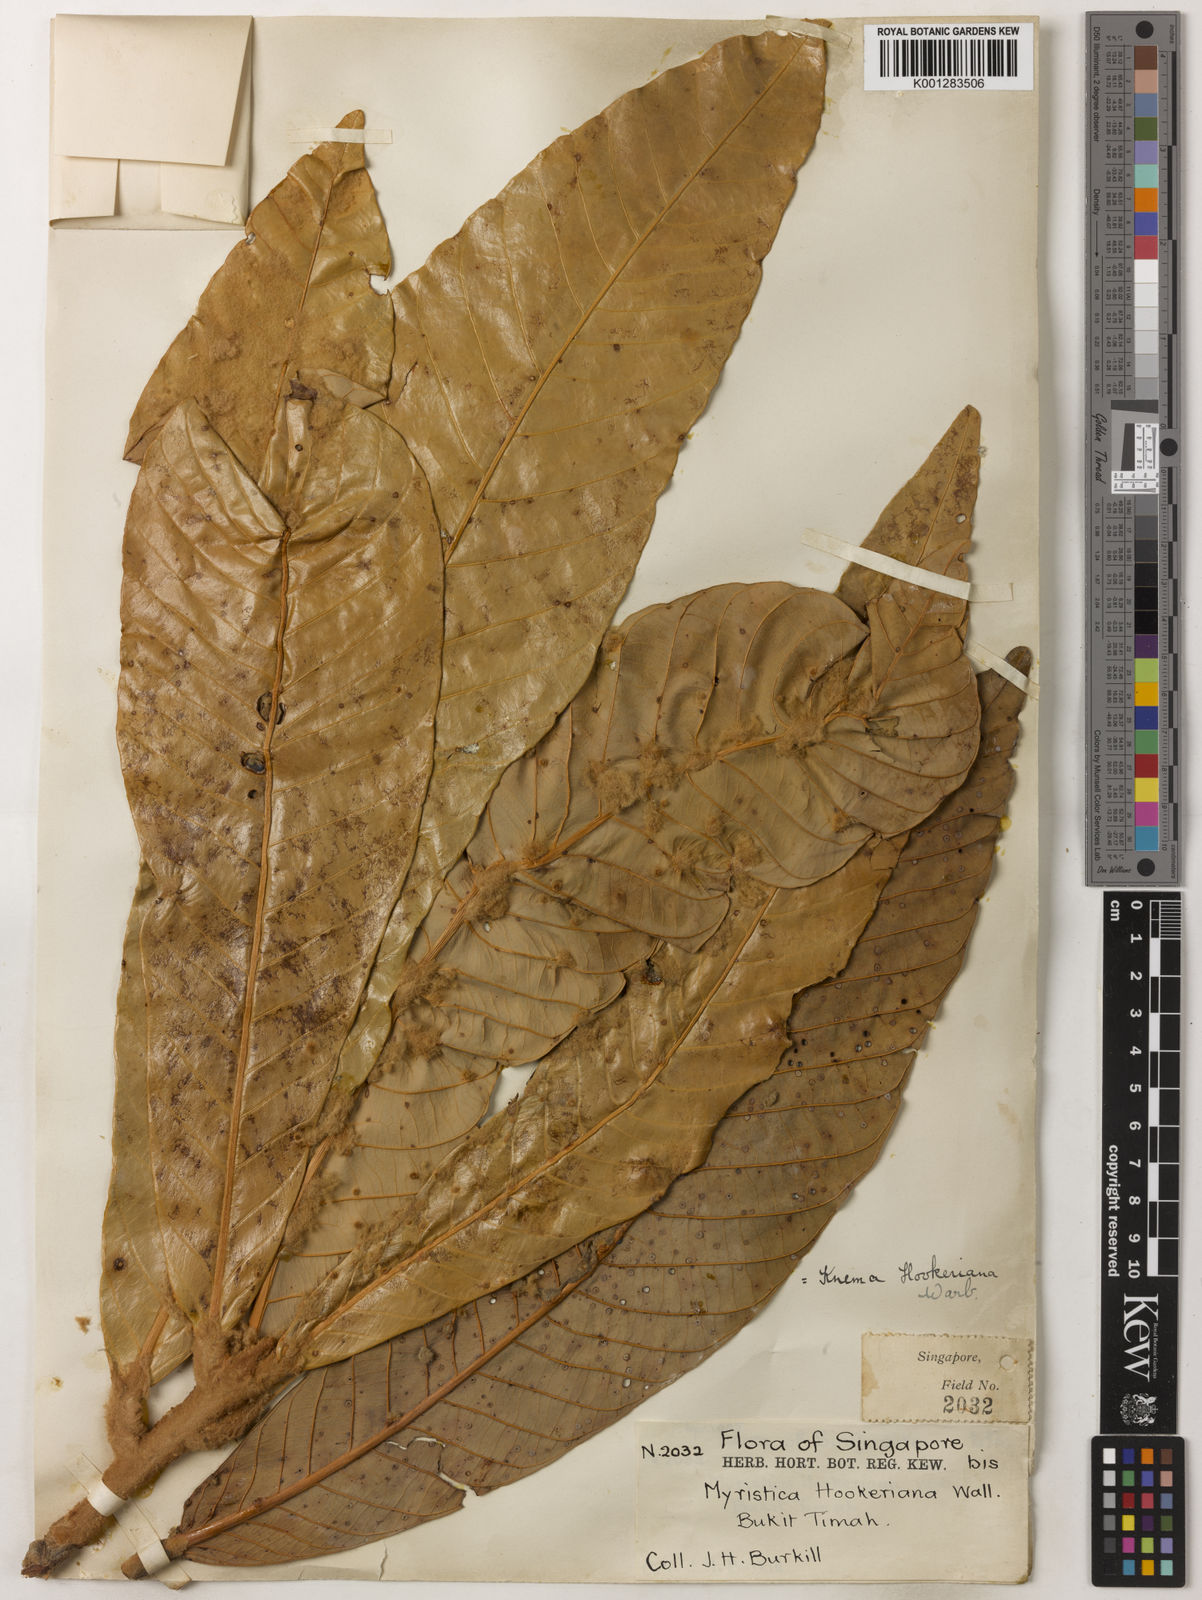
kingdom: Plantae
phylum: Tracheophyta
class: Magnoliopsida
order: Magnoliales
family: Myristicaceae
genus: Knema
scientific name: Knema hookeriana
